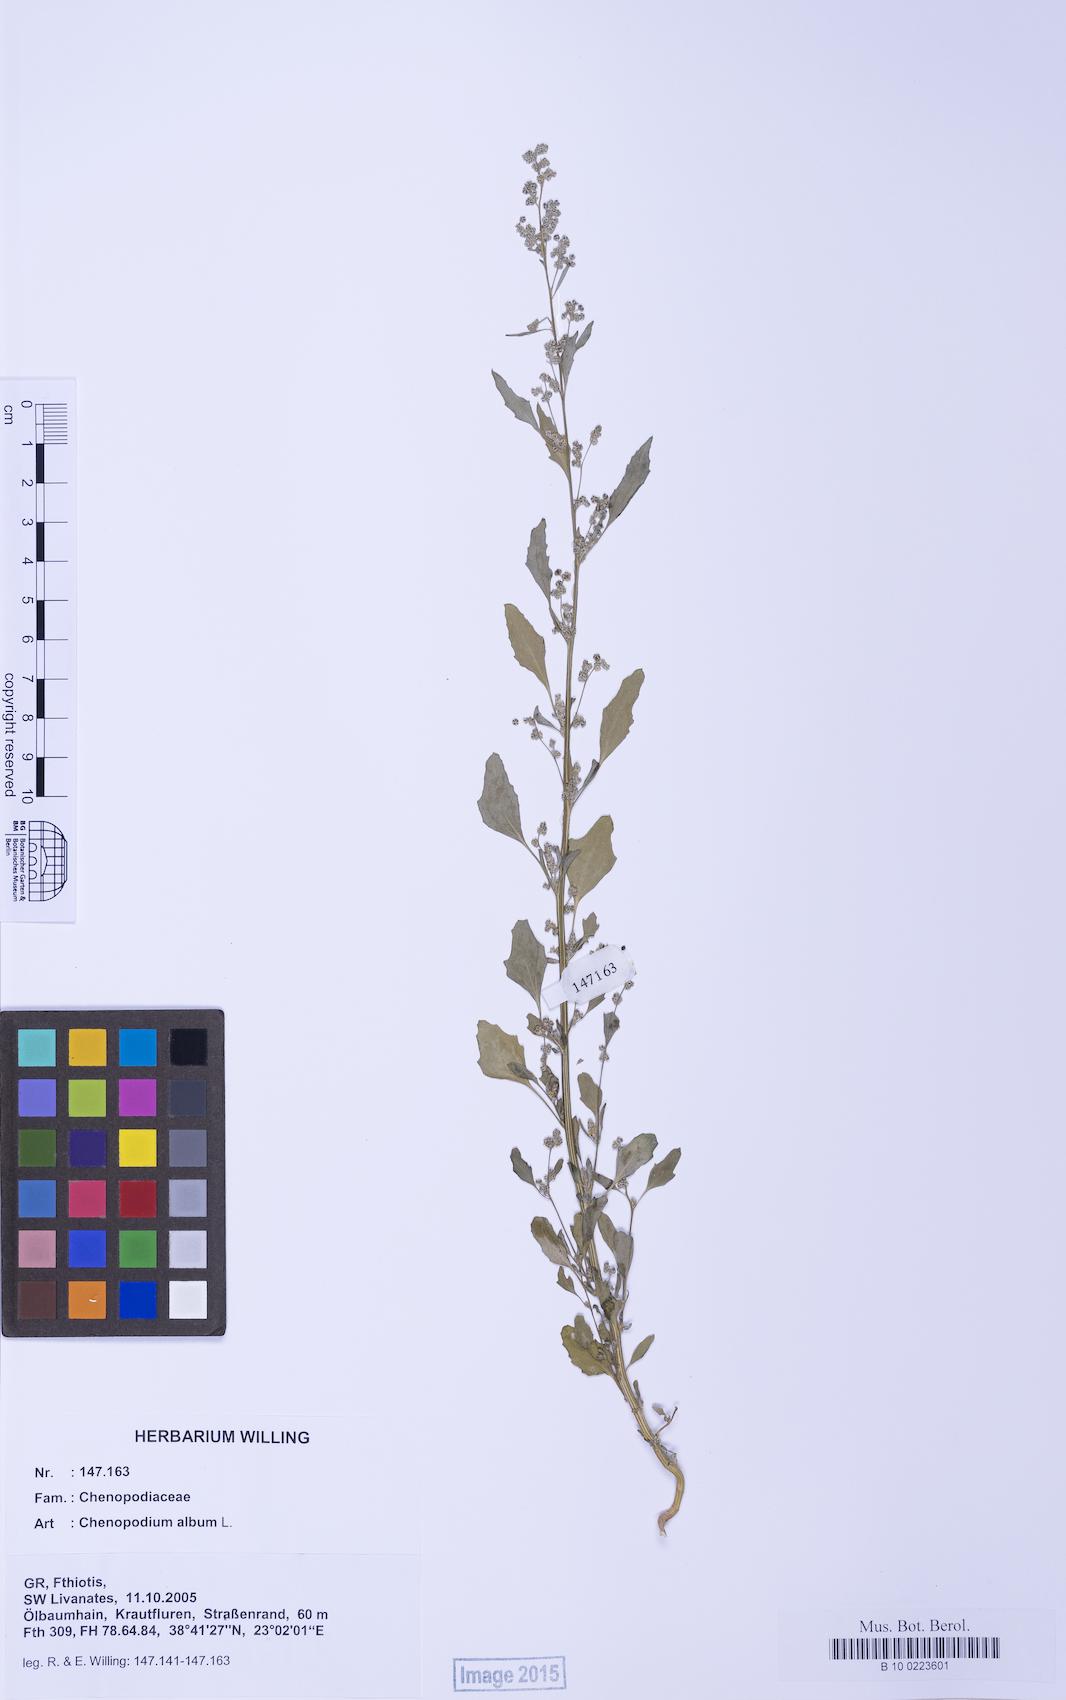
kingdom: Plantae
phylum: Tracheophyta
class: Magnoliopsida
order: Caryophyllales
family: Amaranthaceae
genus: Chenopodium
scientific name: Chenopodium album
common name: Fat-hen
